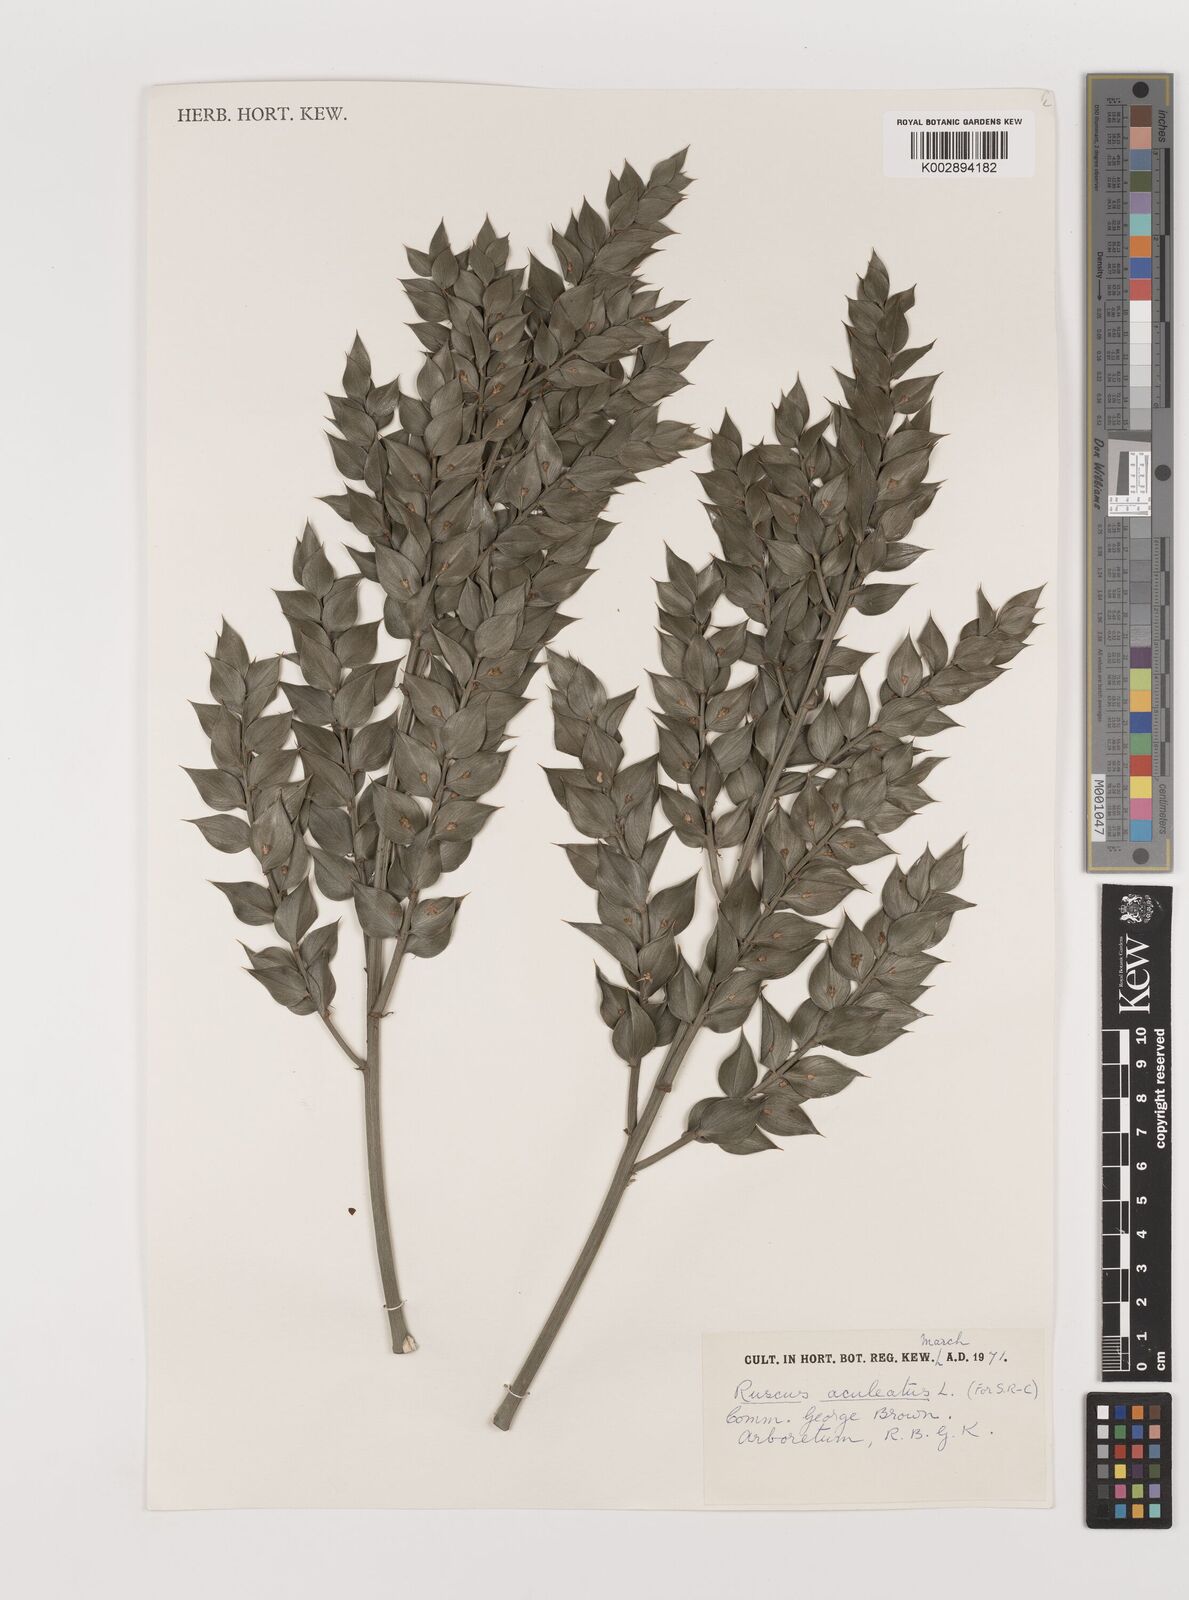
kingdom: Plantae
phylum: Tracheophyta
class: Liliopsida
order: Asparagales
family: Asparagaceae
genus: Ruscus
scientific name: Ruscus aculeatus
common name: Butcher's-broom
